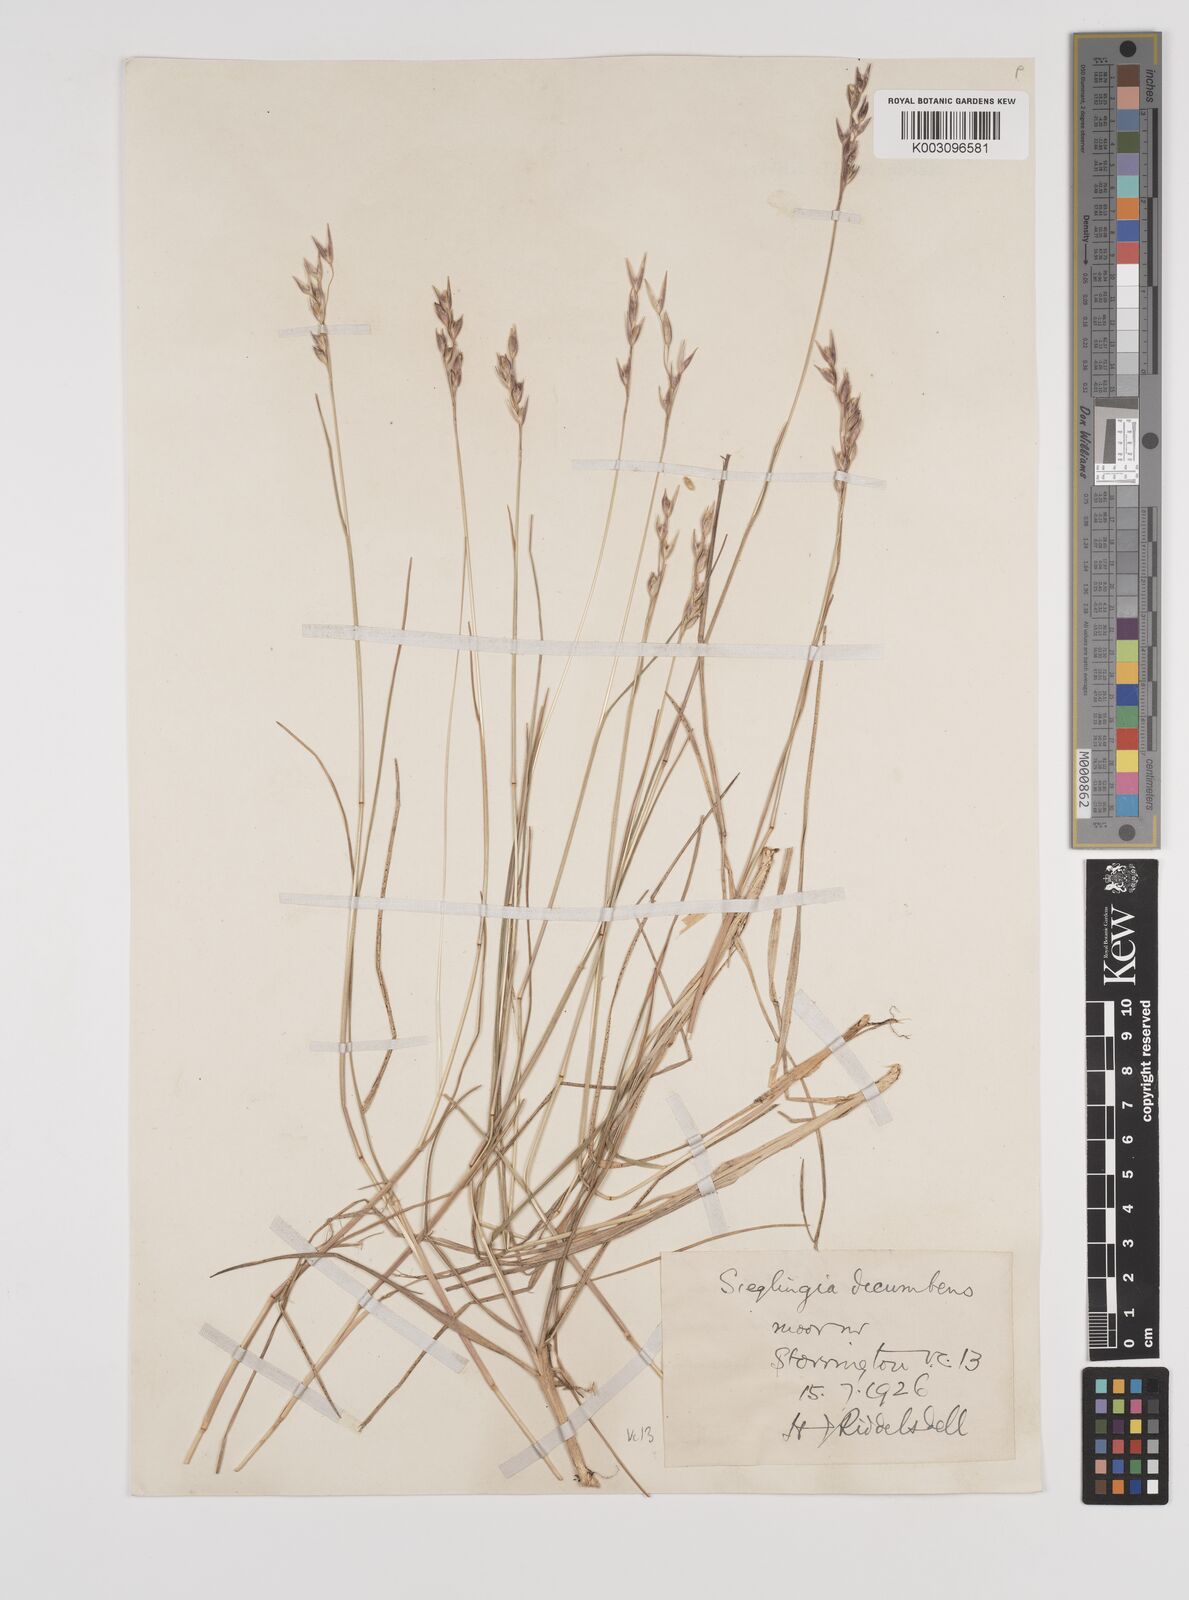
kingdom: Plantae
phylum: Tracheophyta
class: Liliopsida
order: Poales
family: Poaceae
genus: Danthonia
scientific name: Danthonia decumbens
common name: Common heathgrass
